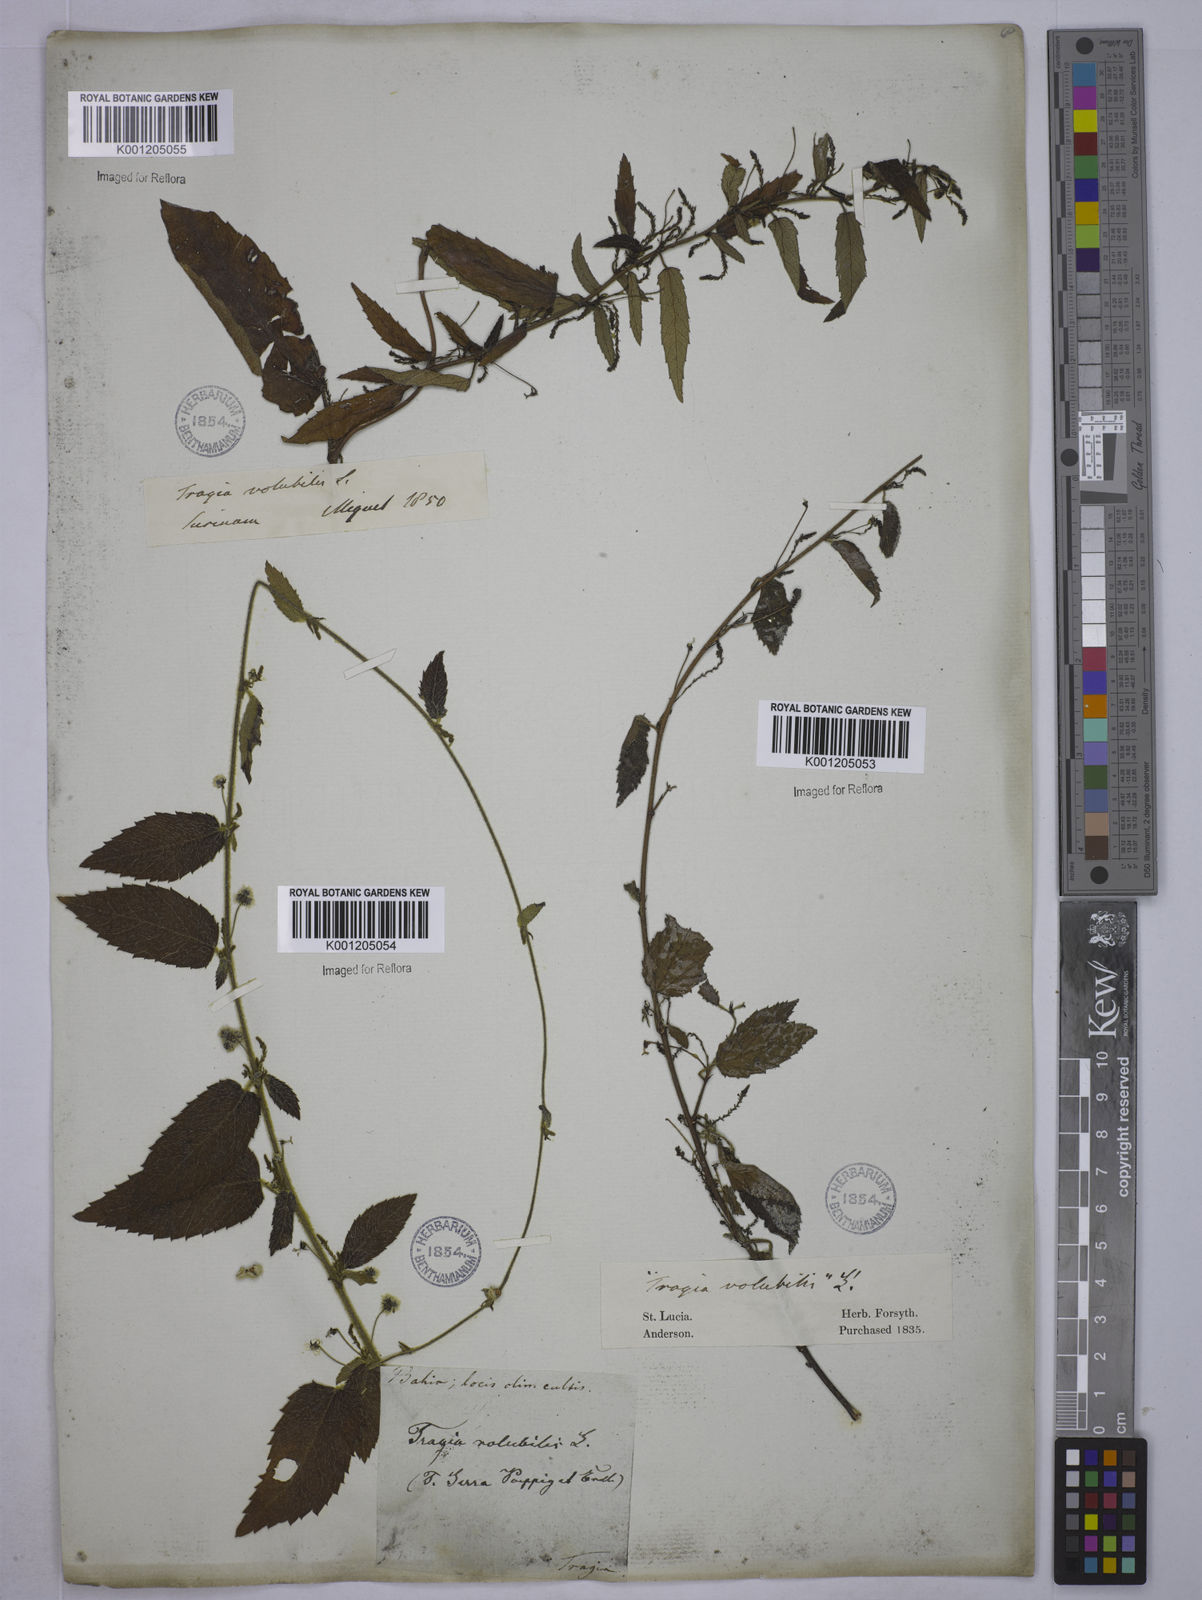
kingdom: Plantae
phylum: Tracheophyta
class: Magnoliopsida
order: Malpighiales
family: Euphorbiaceae
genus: Tragia
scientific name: Tragia volubilis
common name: Twining cow-itch
